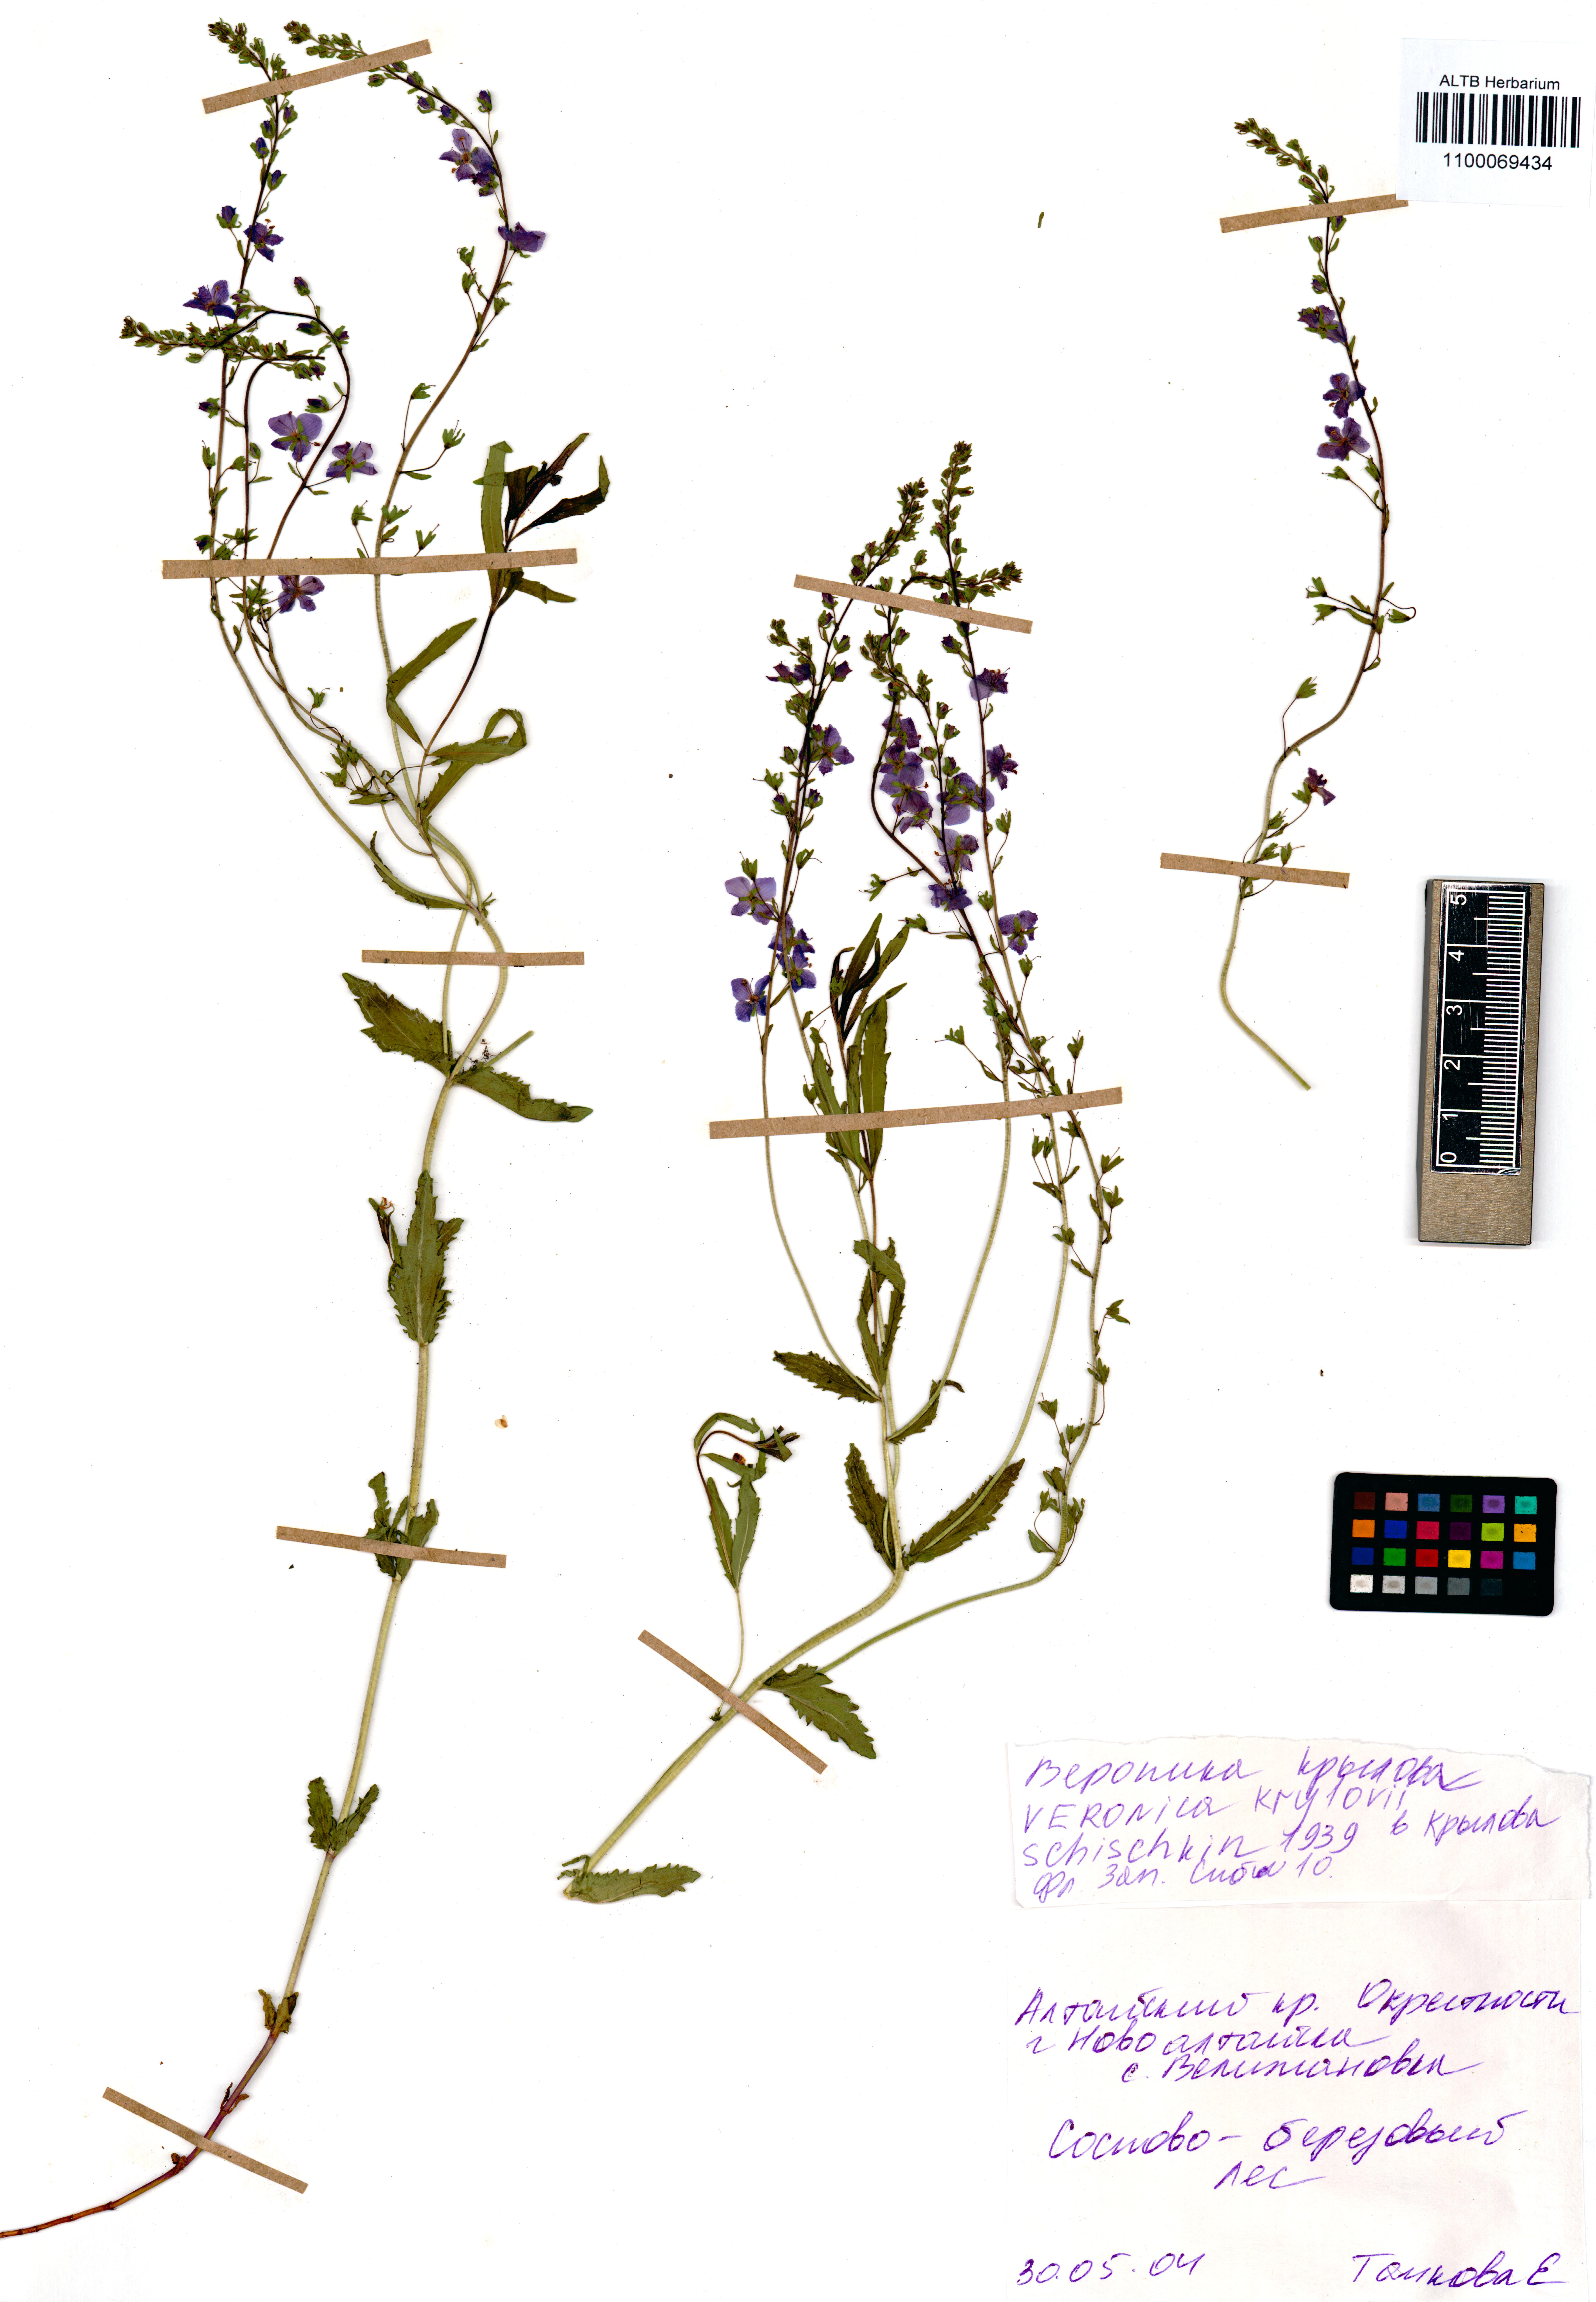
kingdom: Plantae
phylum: Tracheophyta
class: Magnoliopsida
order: Lamiales
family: Plantaginaceae
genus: Veronica
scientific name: Veronica krylovii
